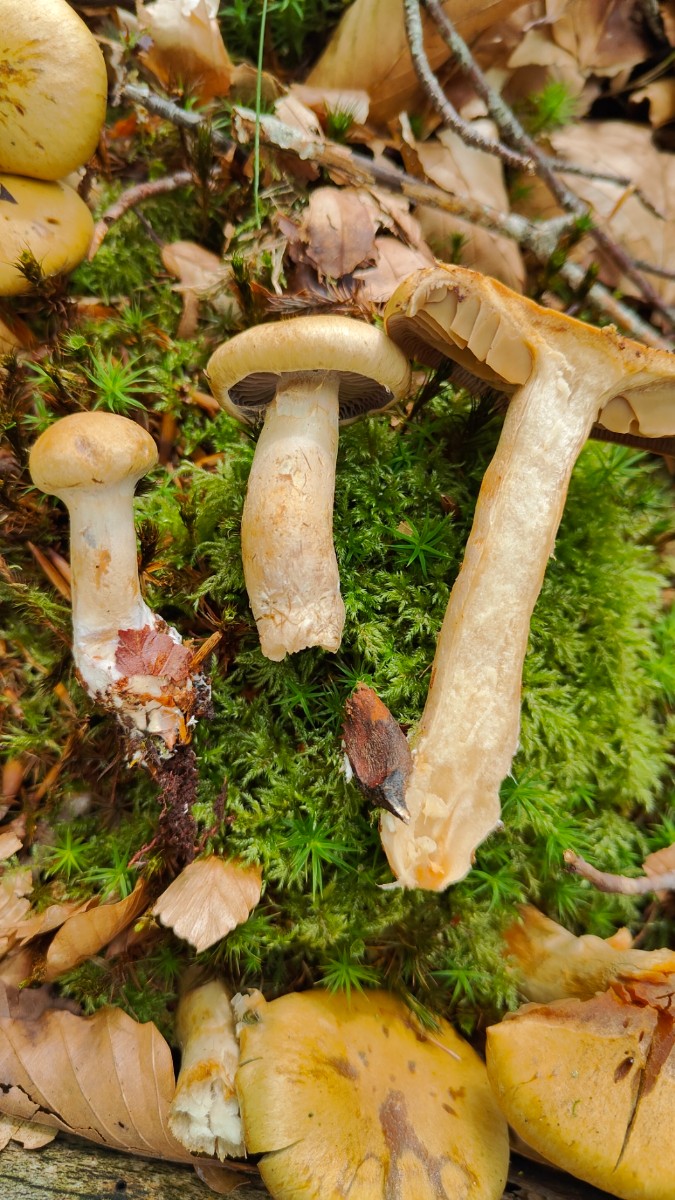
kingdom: Fungi
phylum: Basidiomycota
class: Agaricomycetes
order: Agaricales
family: Cortinariaceae
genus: Cortinarius
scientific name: Cortinarius subtortus
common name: olivengul slørhat
